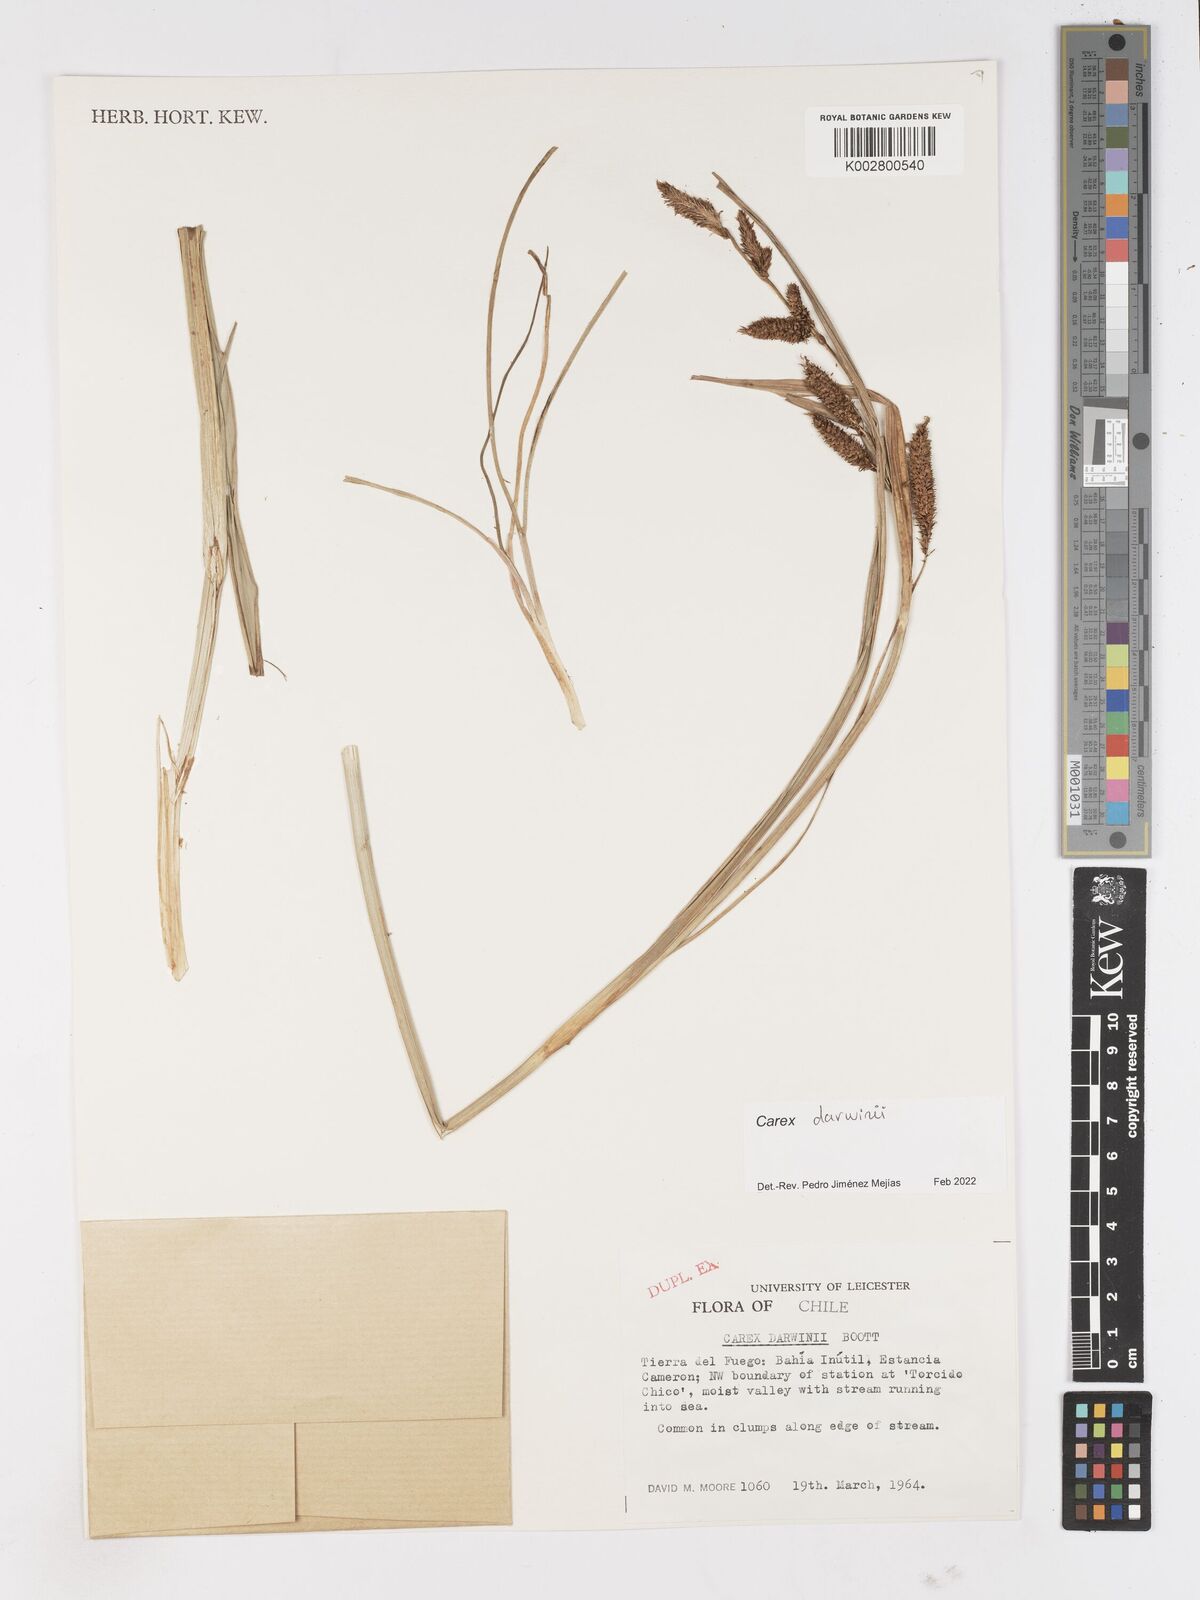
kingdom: Plantae
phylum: Tracheophyta
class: Liliopsida
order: Poales
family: Cyperaceae
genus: Carex
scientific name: Carex darwinii
